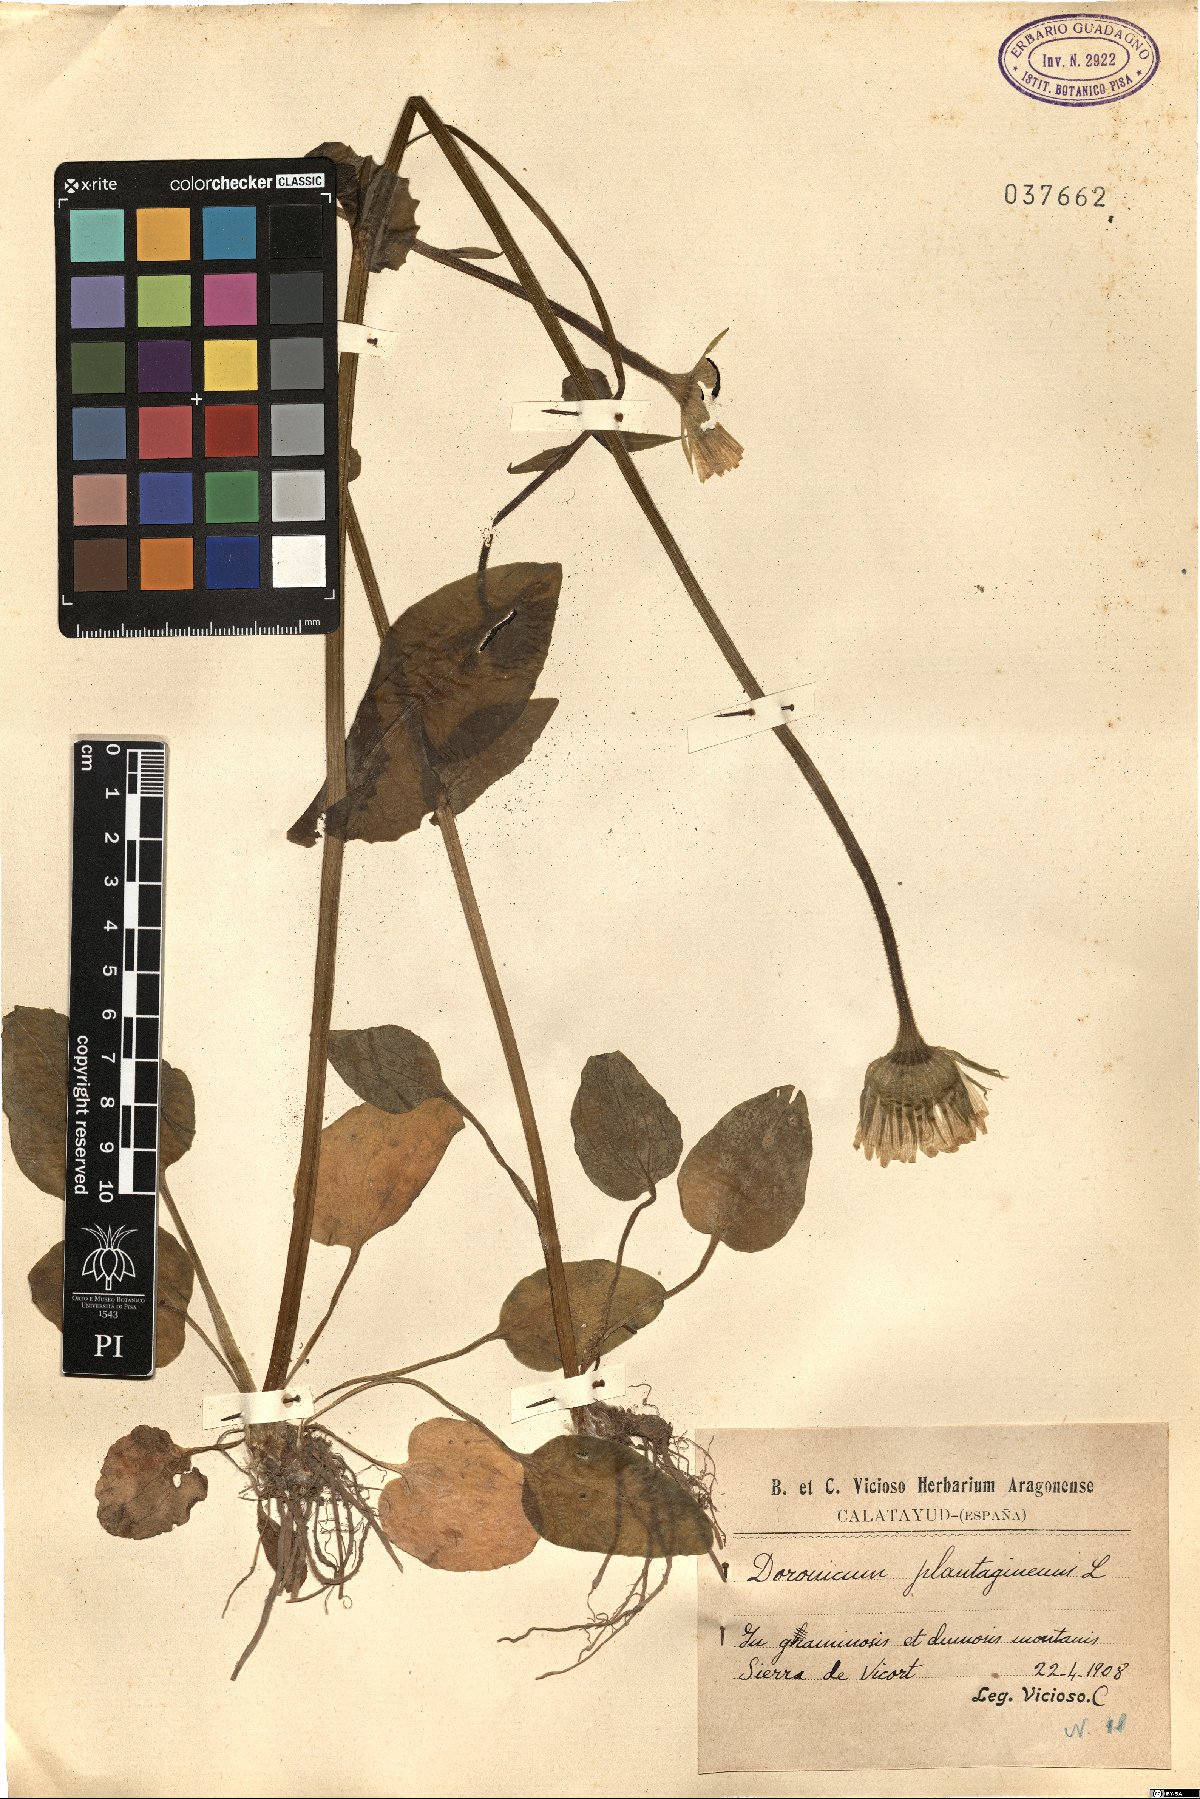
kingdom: Plantae
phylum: Tracheophyta
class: Magnoliopsida
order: Asterales
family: Asteraceae
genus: Doronicum
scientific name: Doronicum plantagineum
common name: Plantain-leaved leopard's-bane
